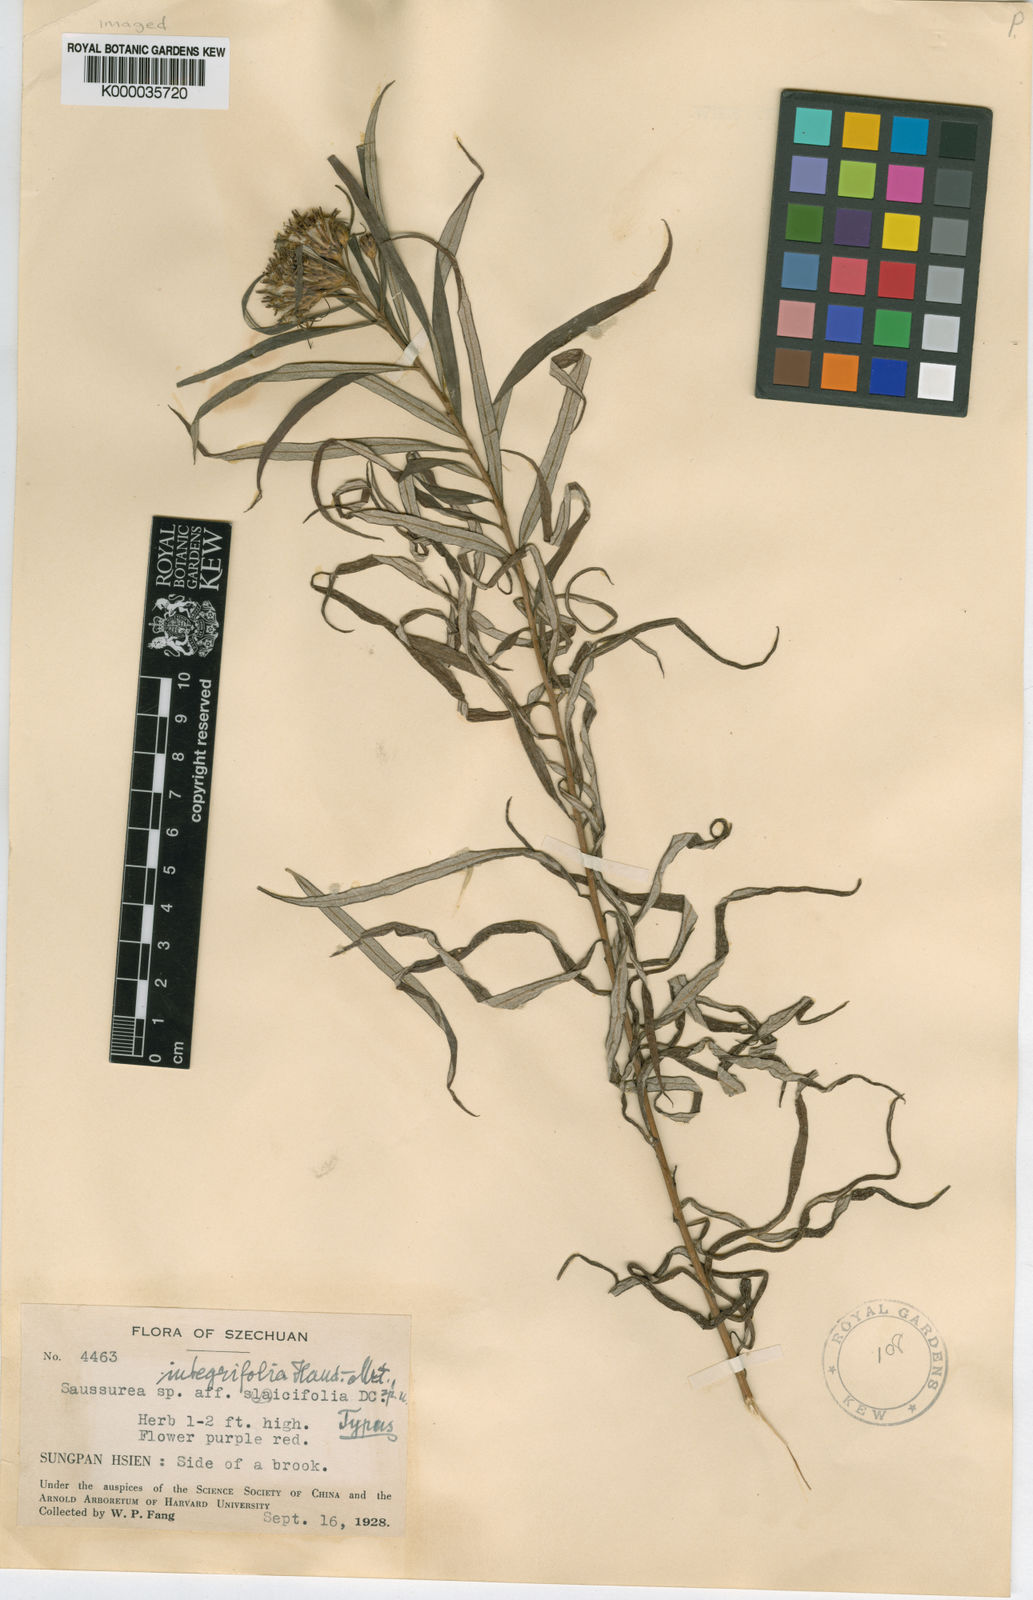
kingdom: Plantae
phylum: Tracheophyta
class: Magnoliopsida
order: Asterales
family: Asteraceae
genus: Saussurea
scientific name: Saussurea integrifolia
